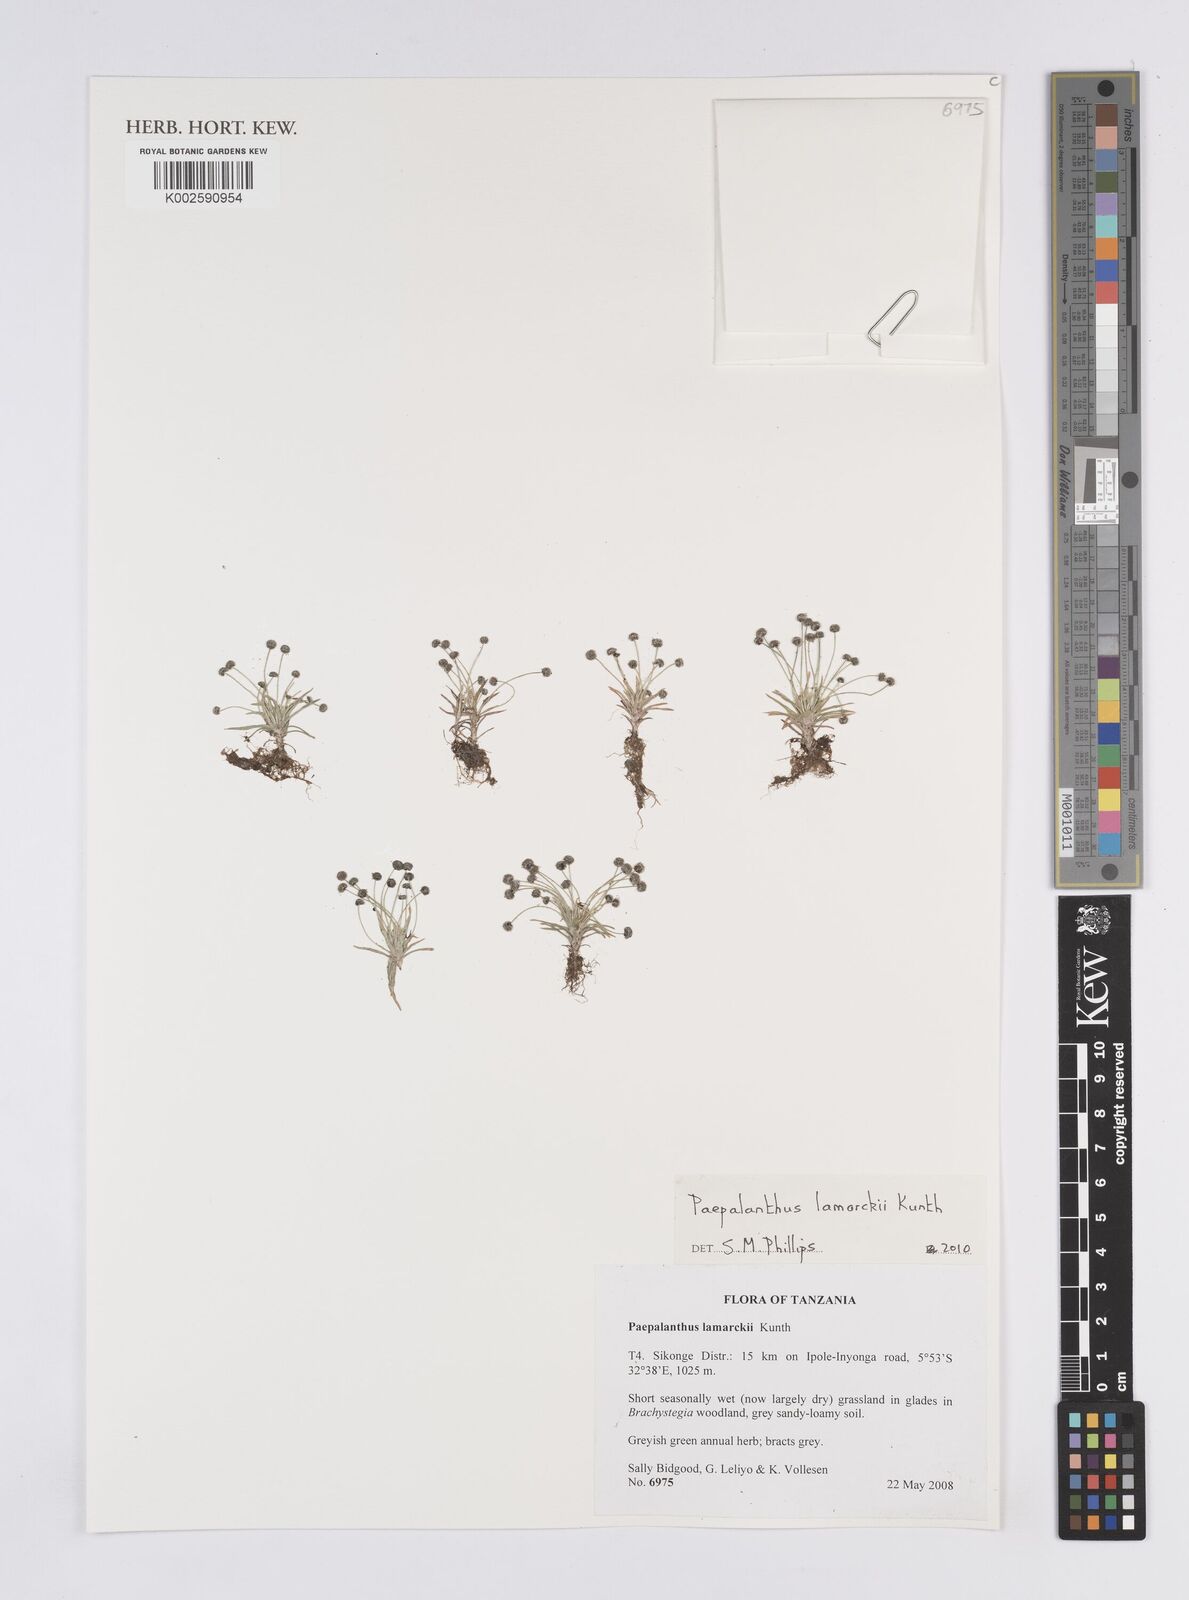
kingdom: Plantae
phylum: Tracheophyta
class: Liliopsida
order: Poales
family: Eriocaulaceae
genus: Paepalanthus
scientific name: Paepalanthus lamarckii
